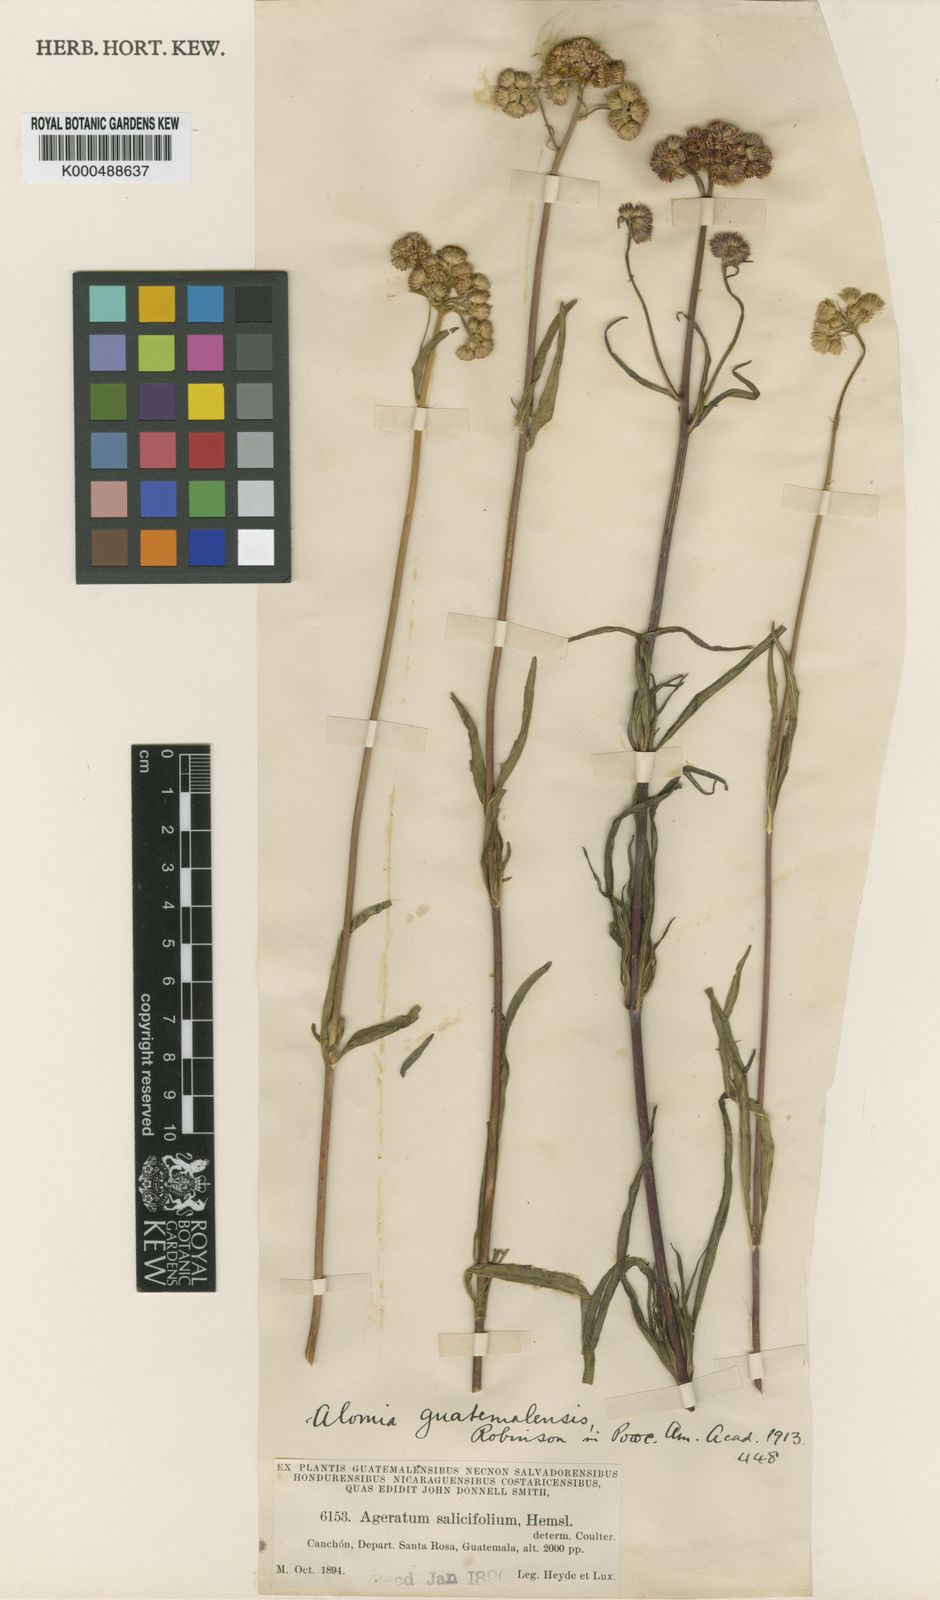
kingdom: Plantae
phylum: Tracheophyta
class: Magnoliopsida
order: Asterales
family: Asteraceae
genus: Ageratum
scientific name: Ageratum platylepis
